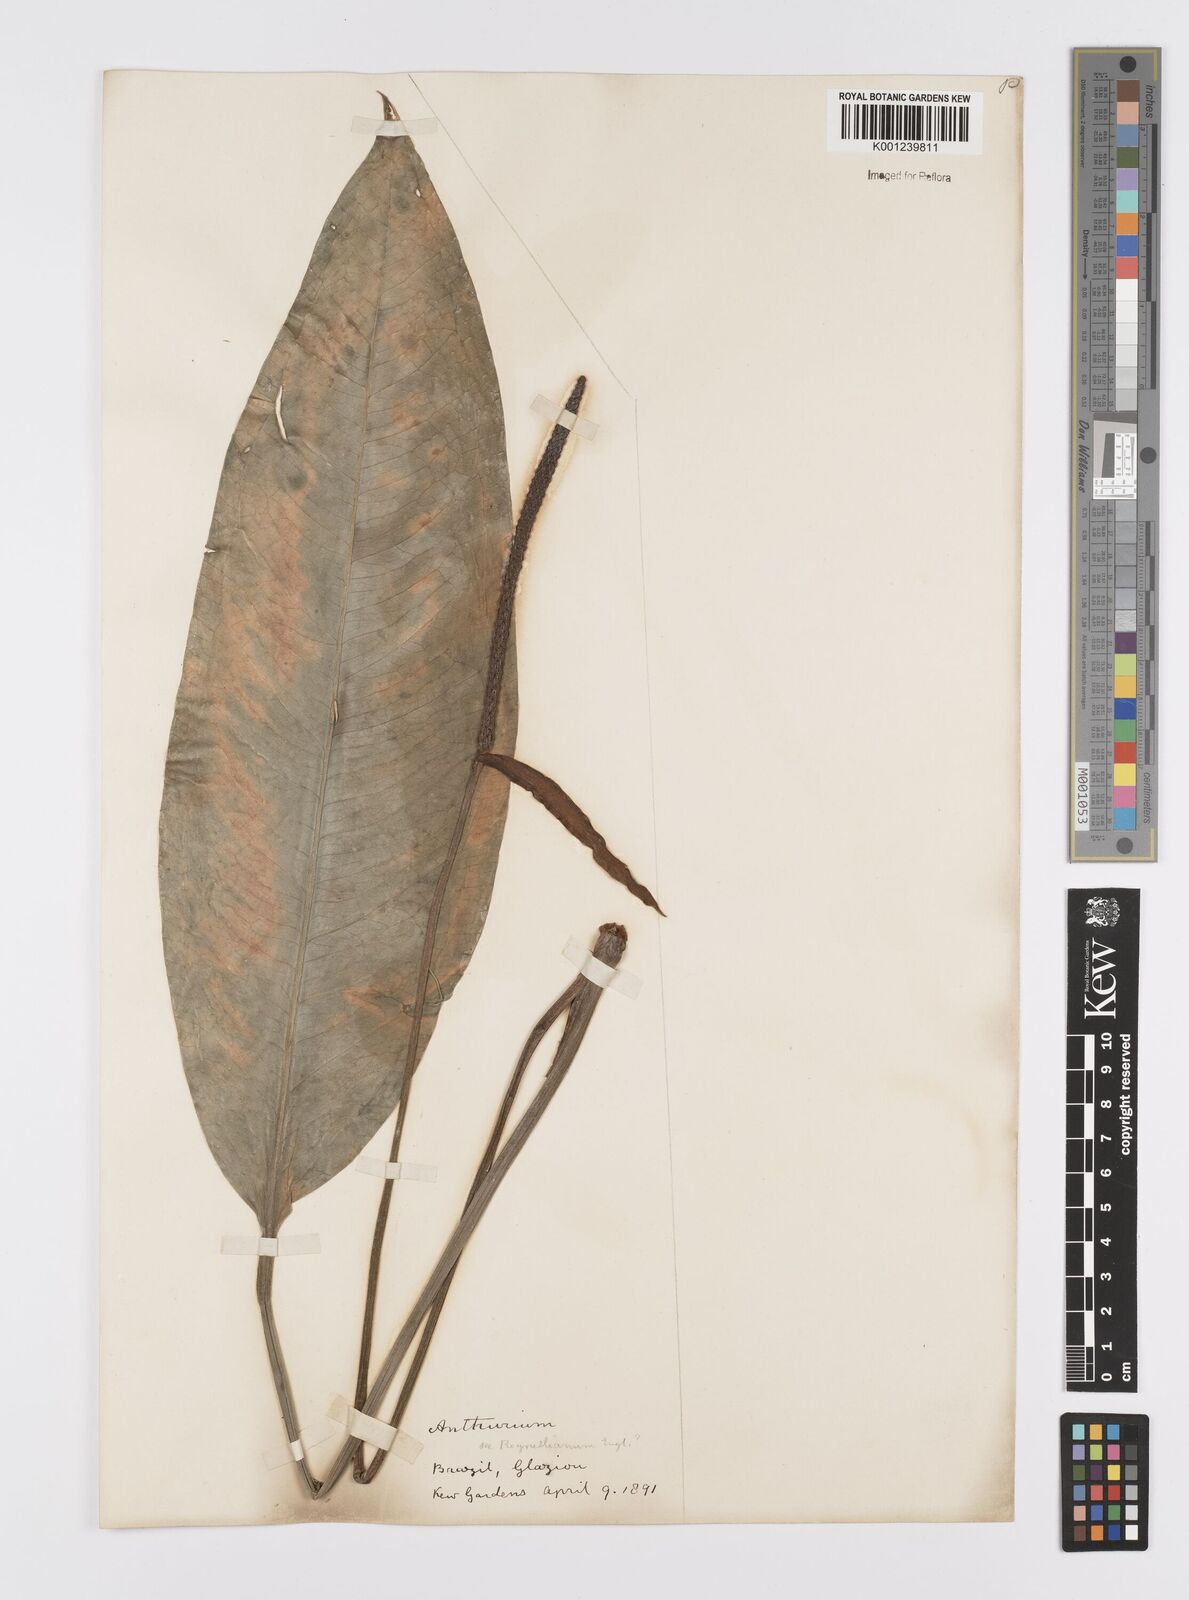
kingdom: Plantae
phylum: Tracheophyta
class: Liliopsida
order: Alismatales
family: Araceae
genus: Anthurium
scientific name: Anthurium
